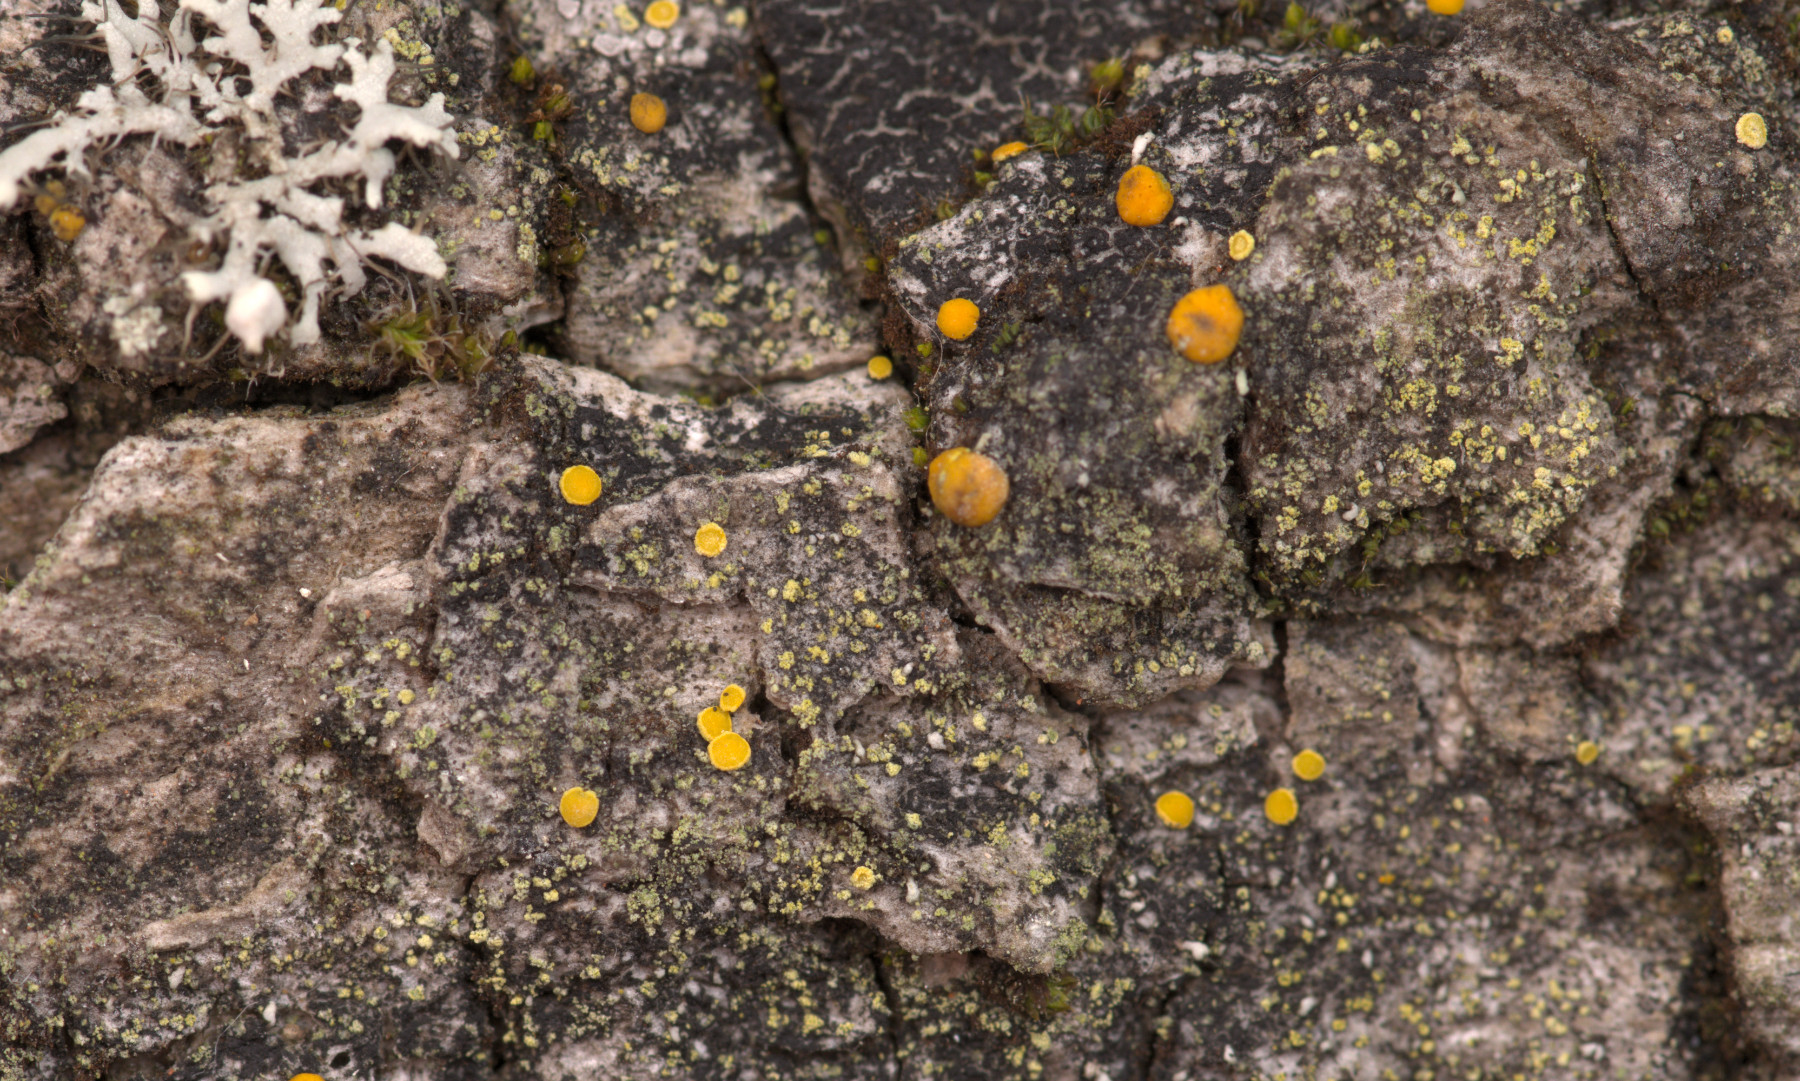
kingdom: Fungi
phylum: Ascomycota
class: Lecanoromycetes
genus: Scythioria
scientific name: Scythioria phlogina
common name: flammet orangelav
